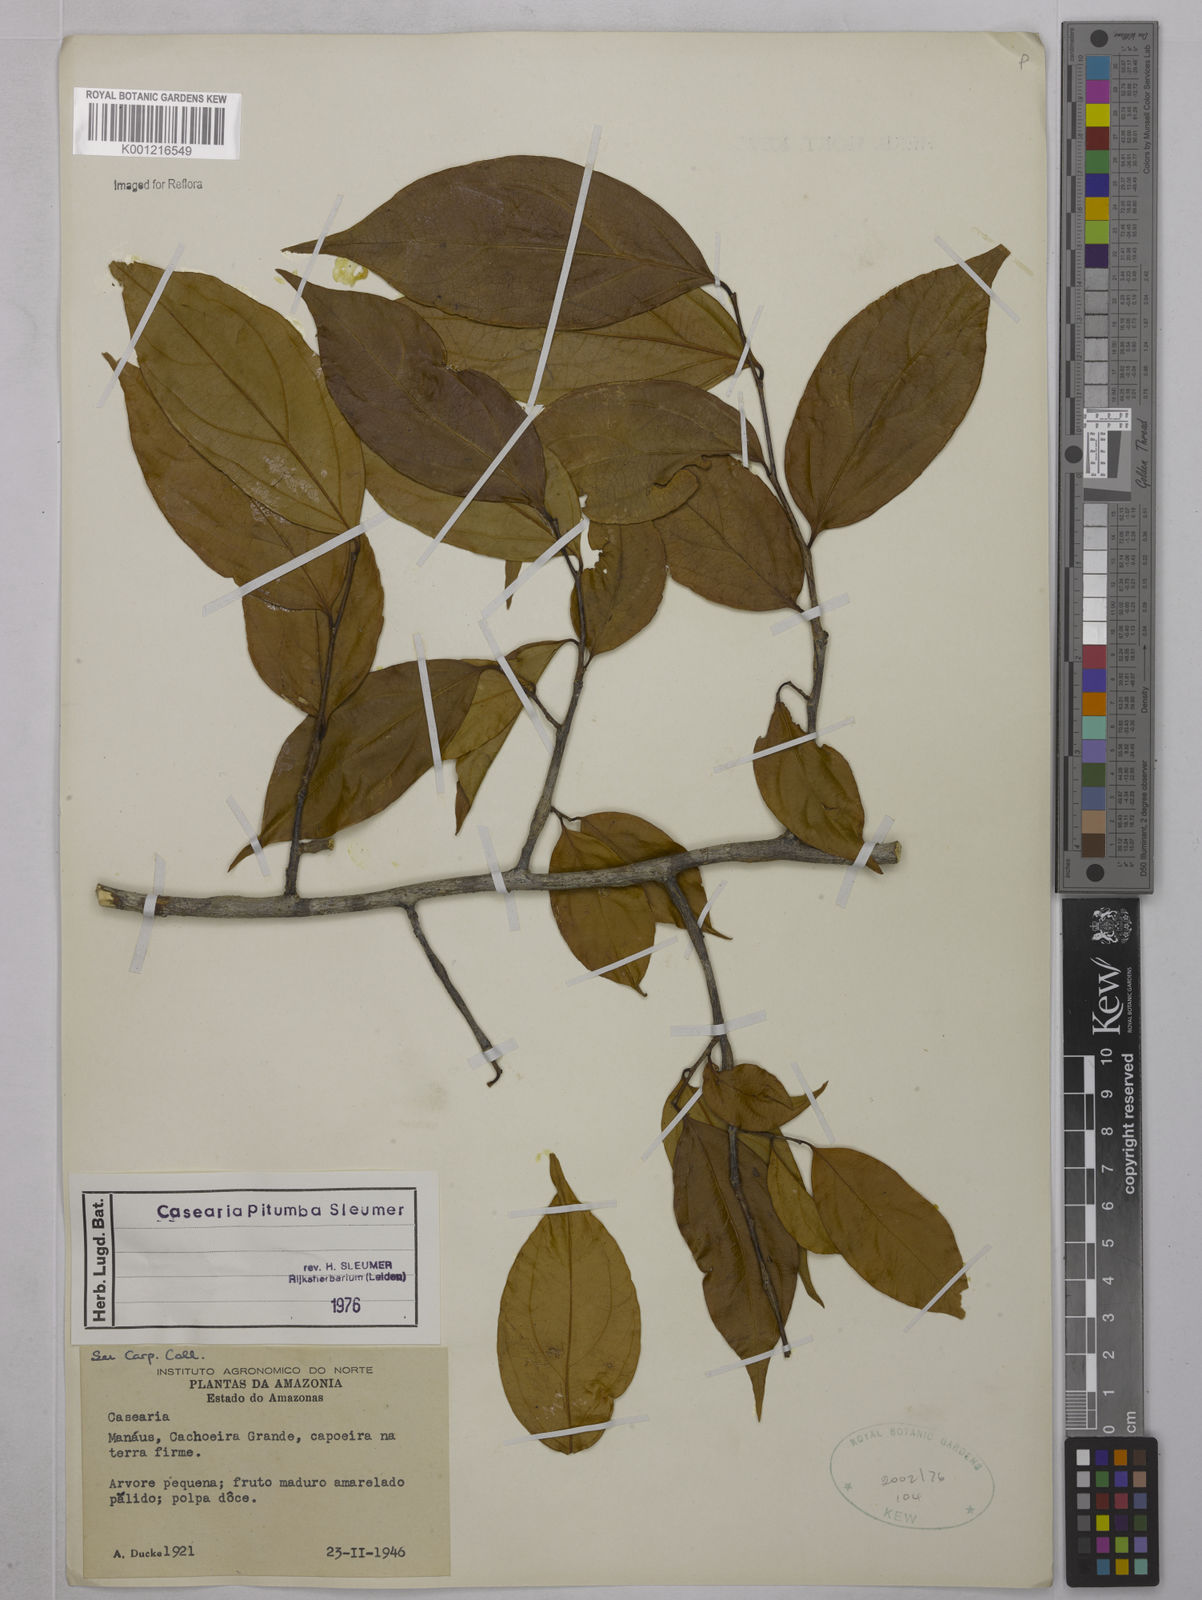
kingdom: Plantae
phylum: Tracheophyta
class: Magnoliopsida
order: Malpighiales
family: Salicaceae
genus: Casearia
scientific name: Casearia pitumba
